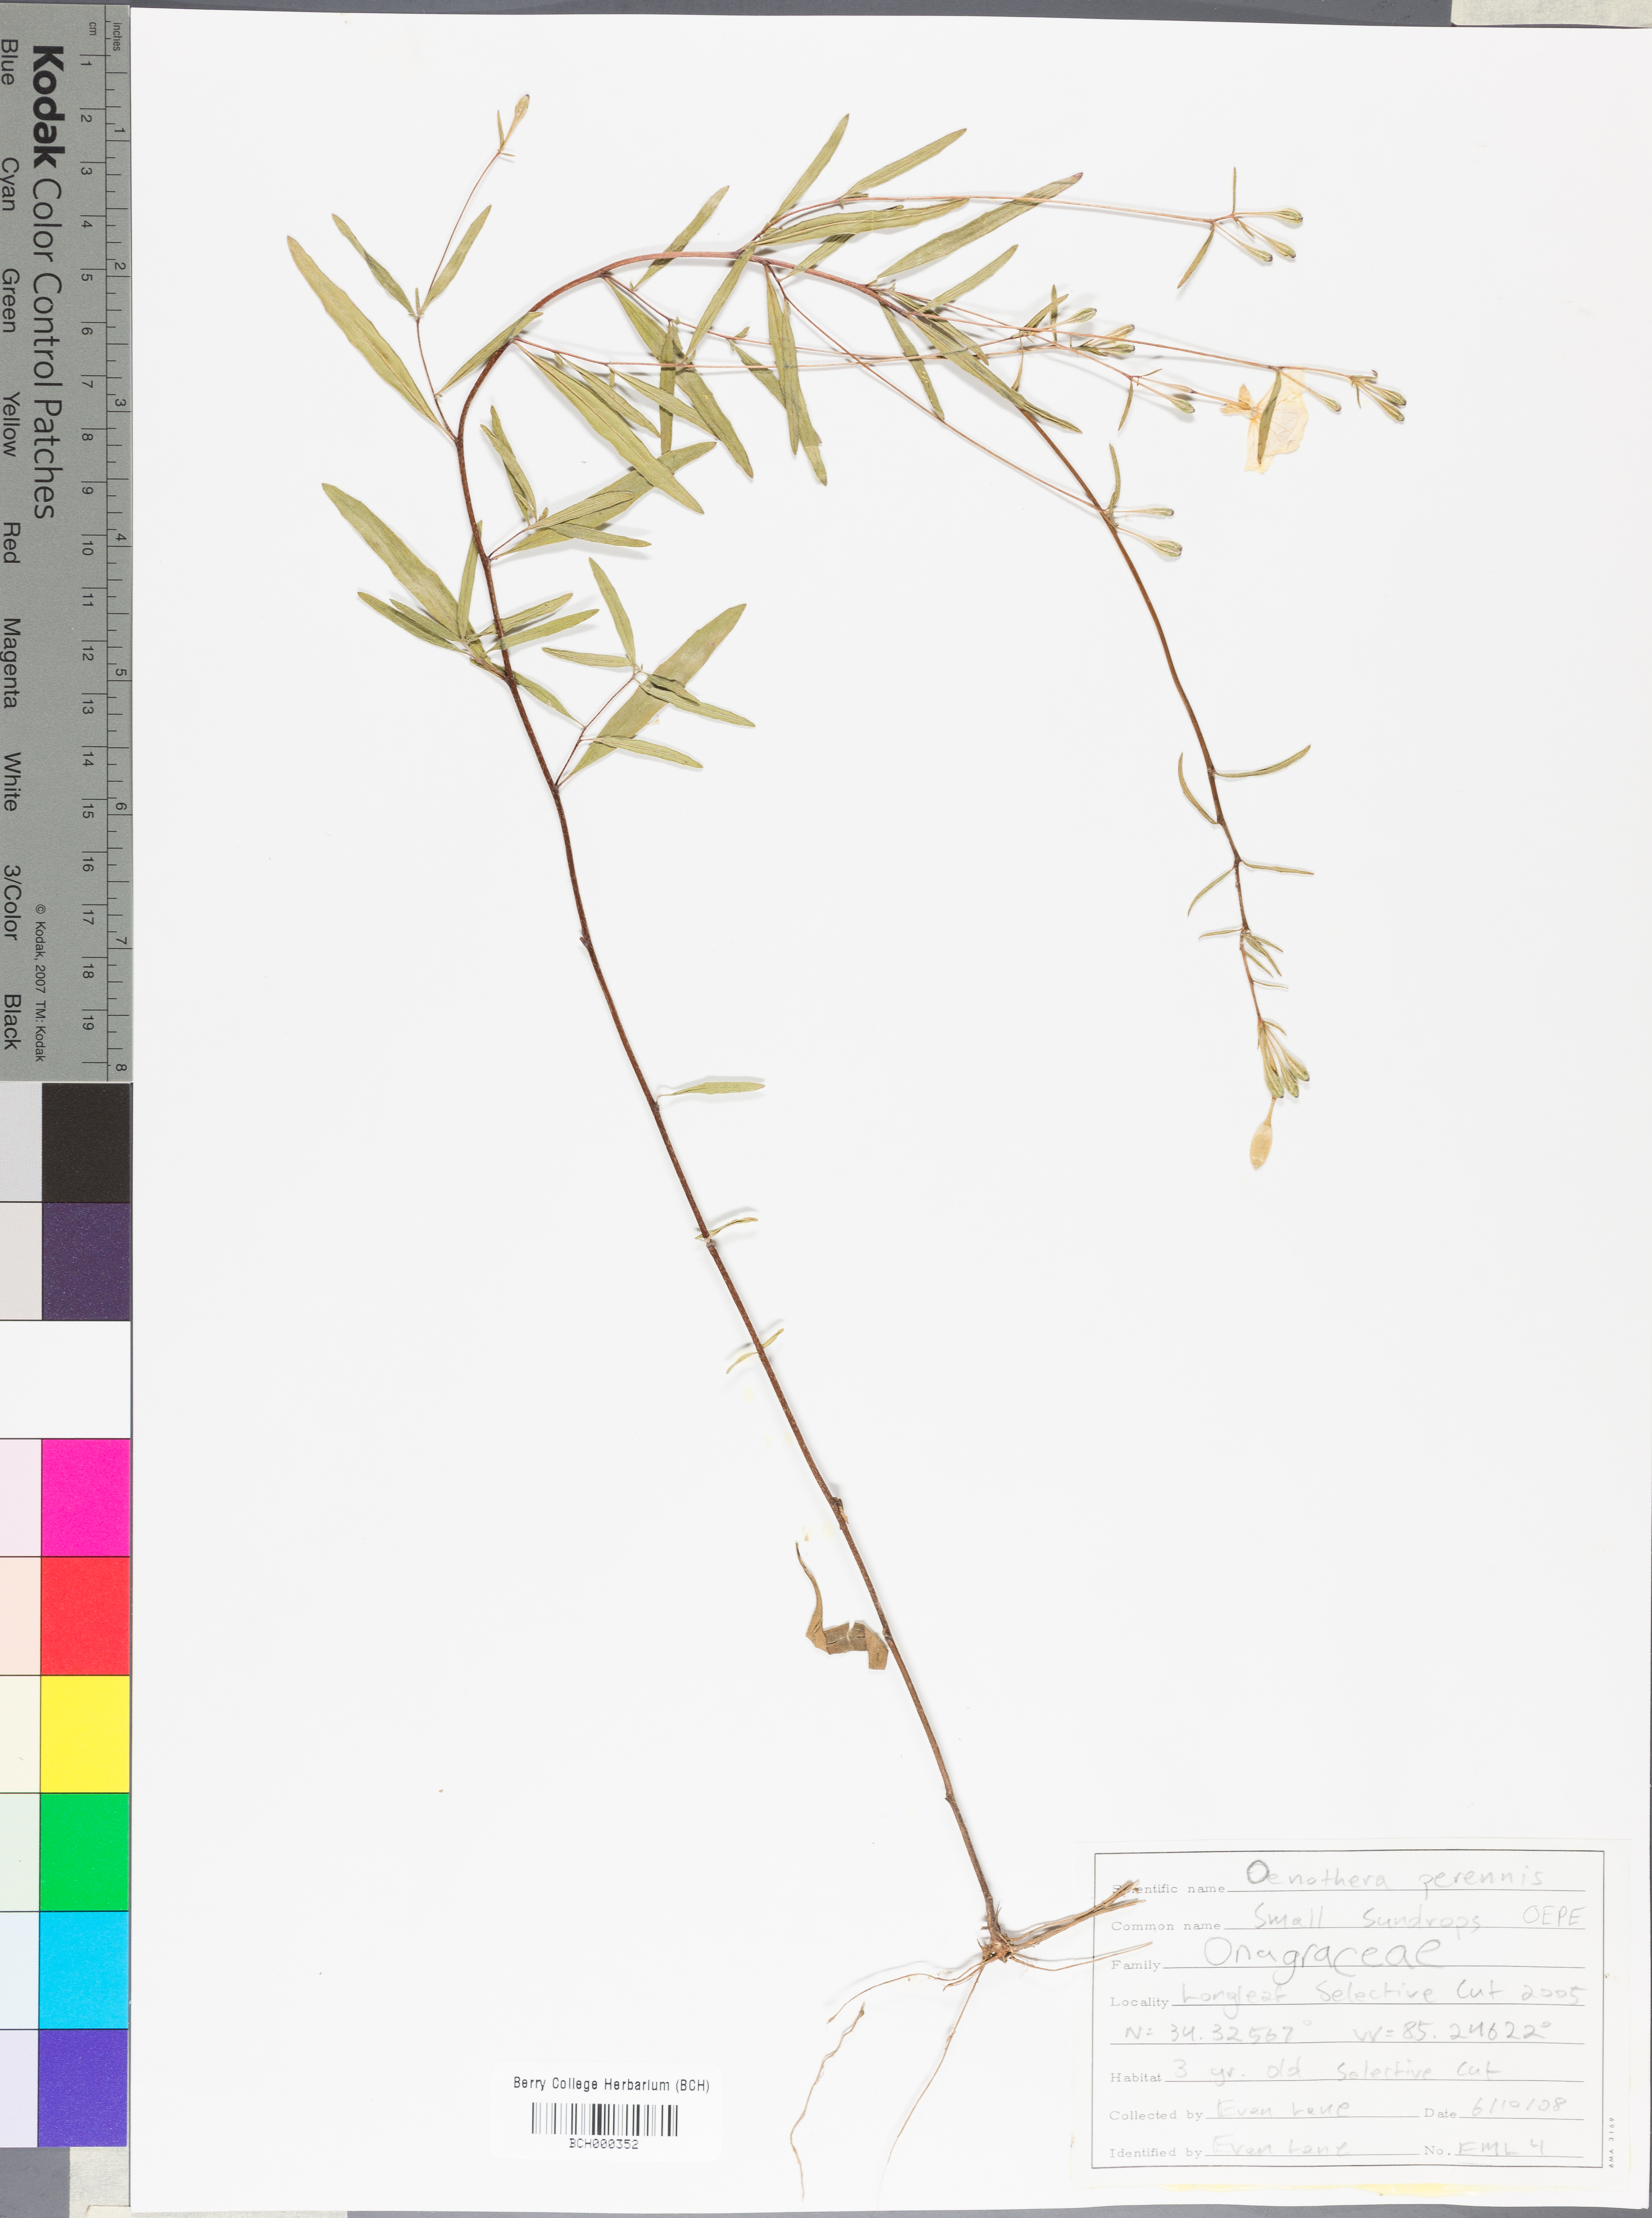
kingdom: Plantae
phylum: Tracheophyta
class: Magnoliopsida
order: Myrtales
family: Onagraceae
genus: Oenothera
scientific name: Oenothera perennis
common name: Small sundrops
